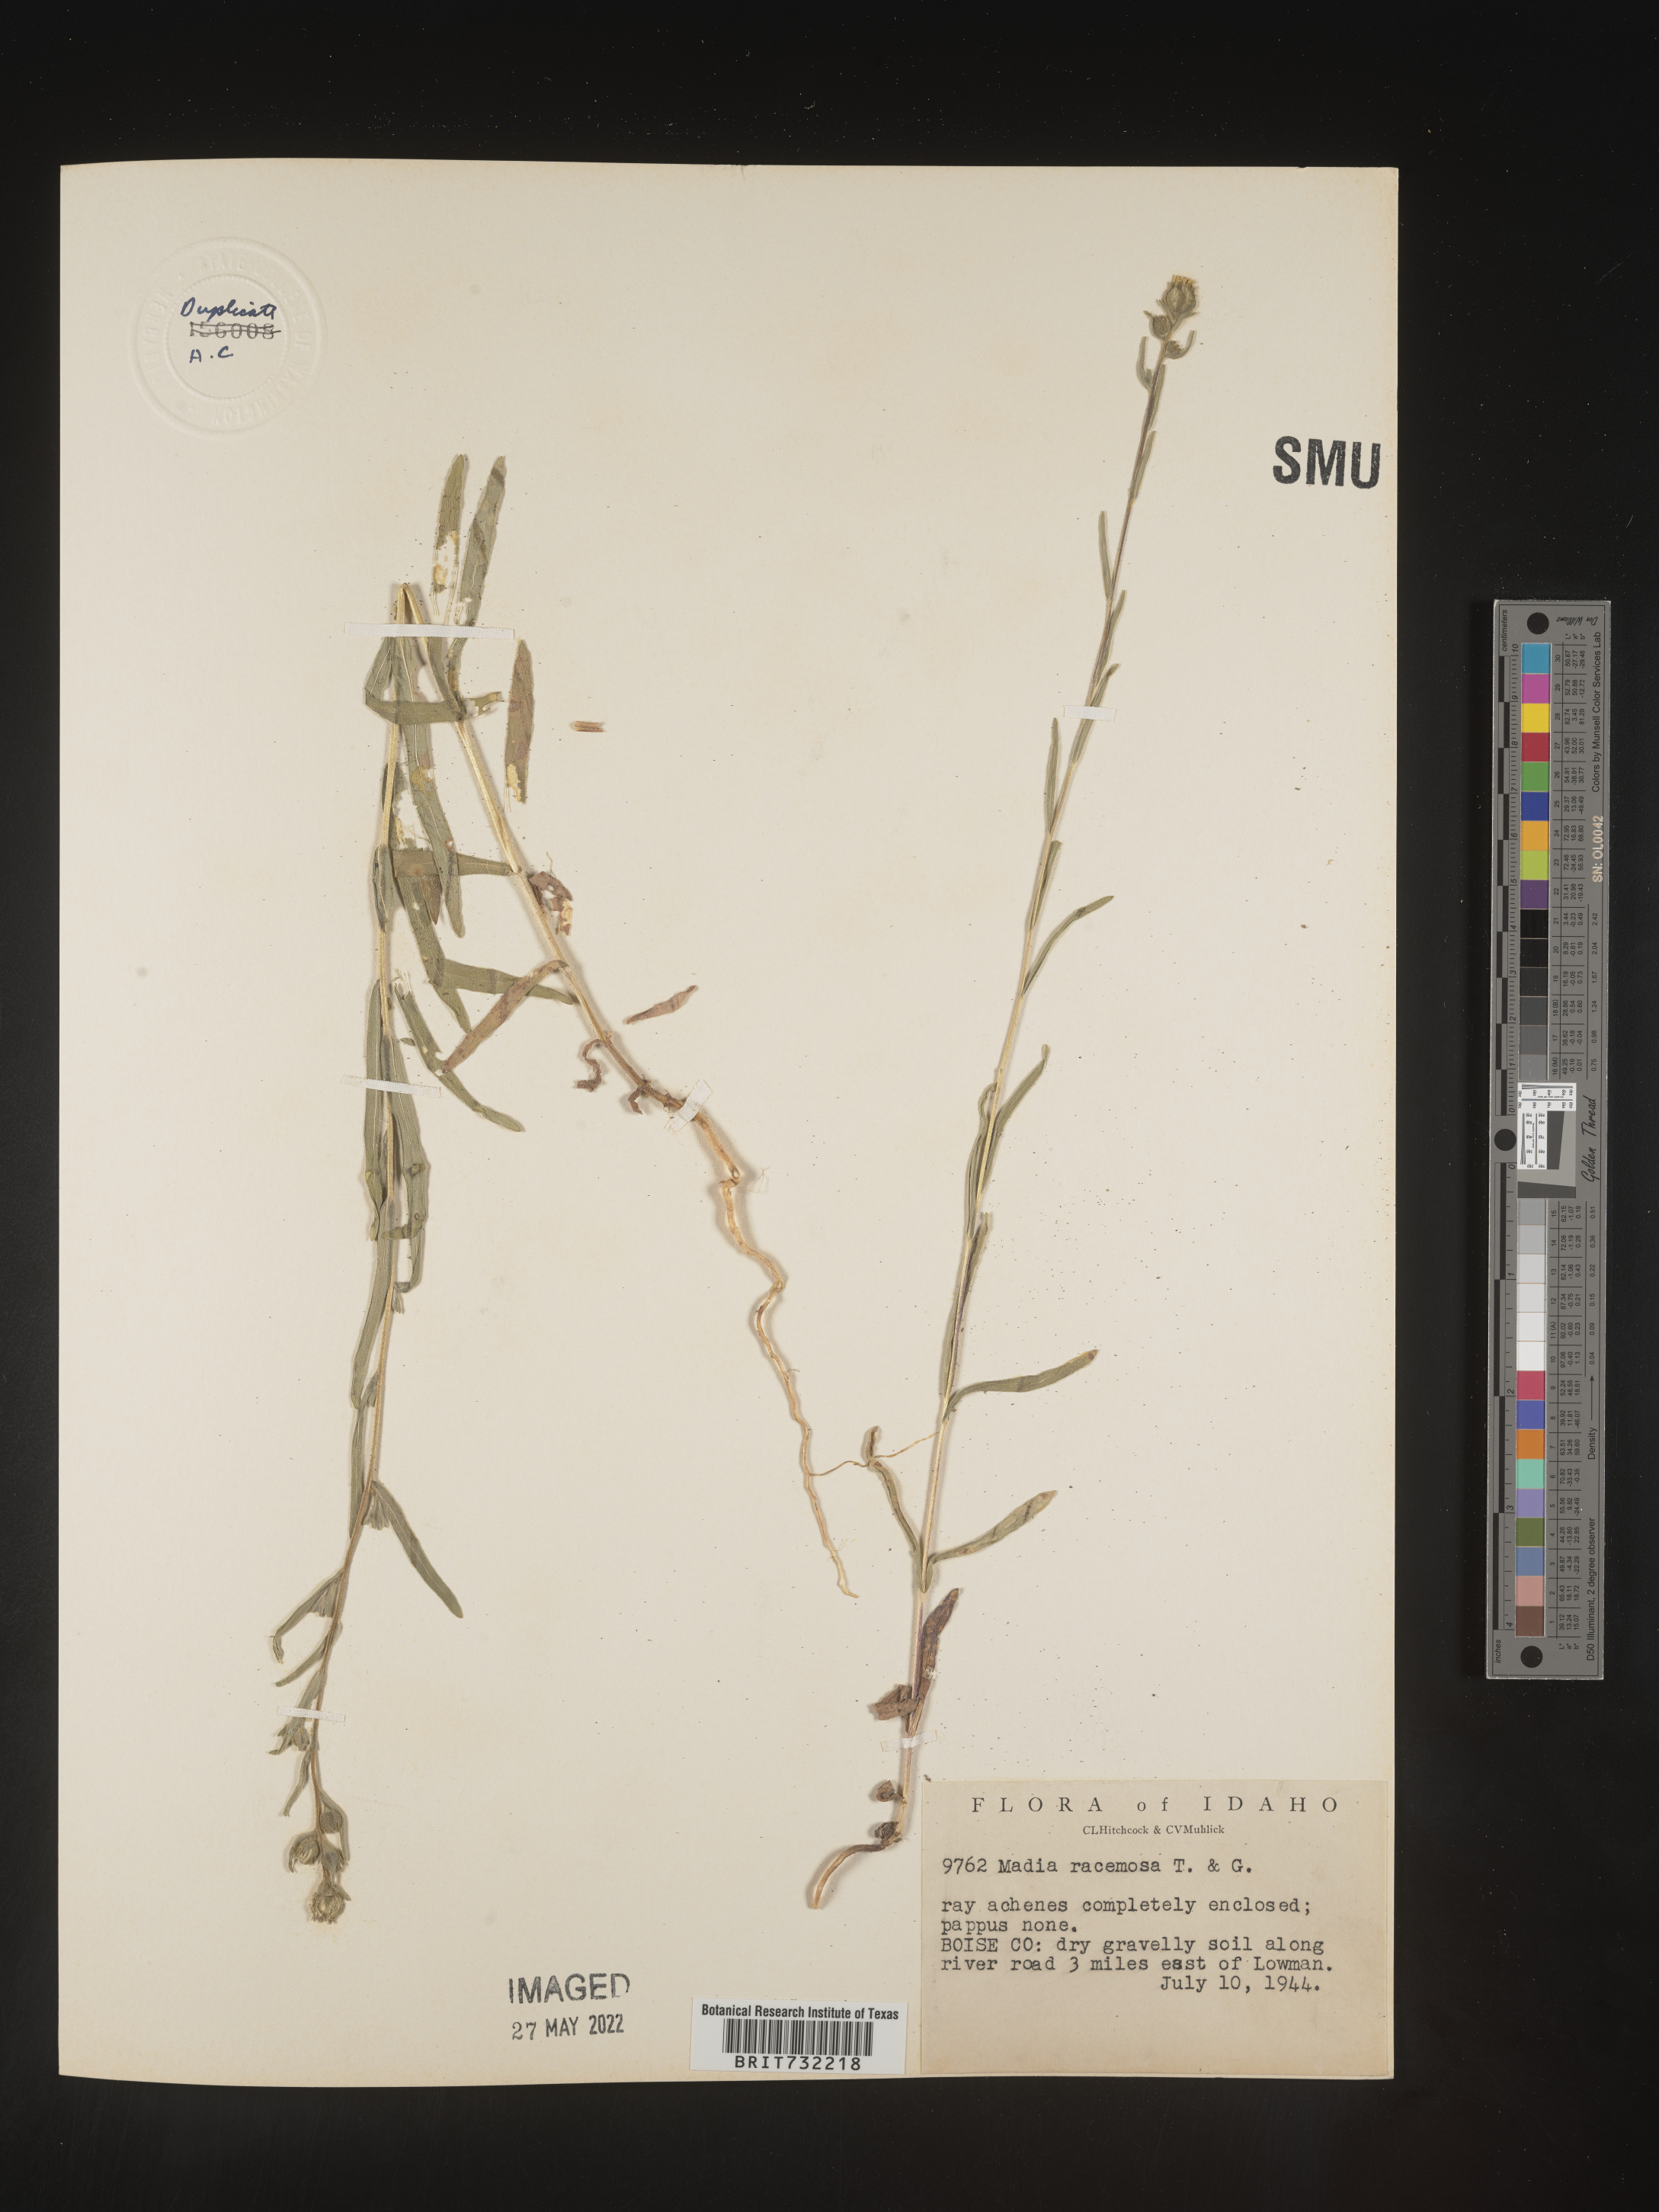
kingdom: Plantae
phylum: Tracheophyta
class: Magnoliopsida
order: Asterales
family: Asteraceae
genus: Madia
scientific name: Madia
